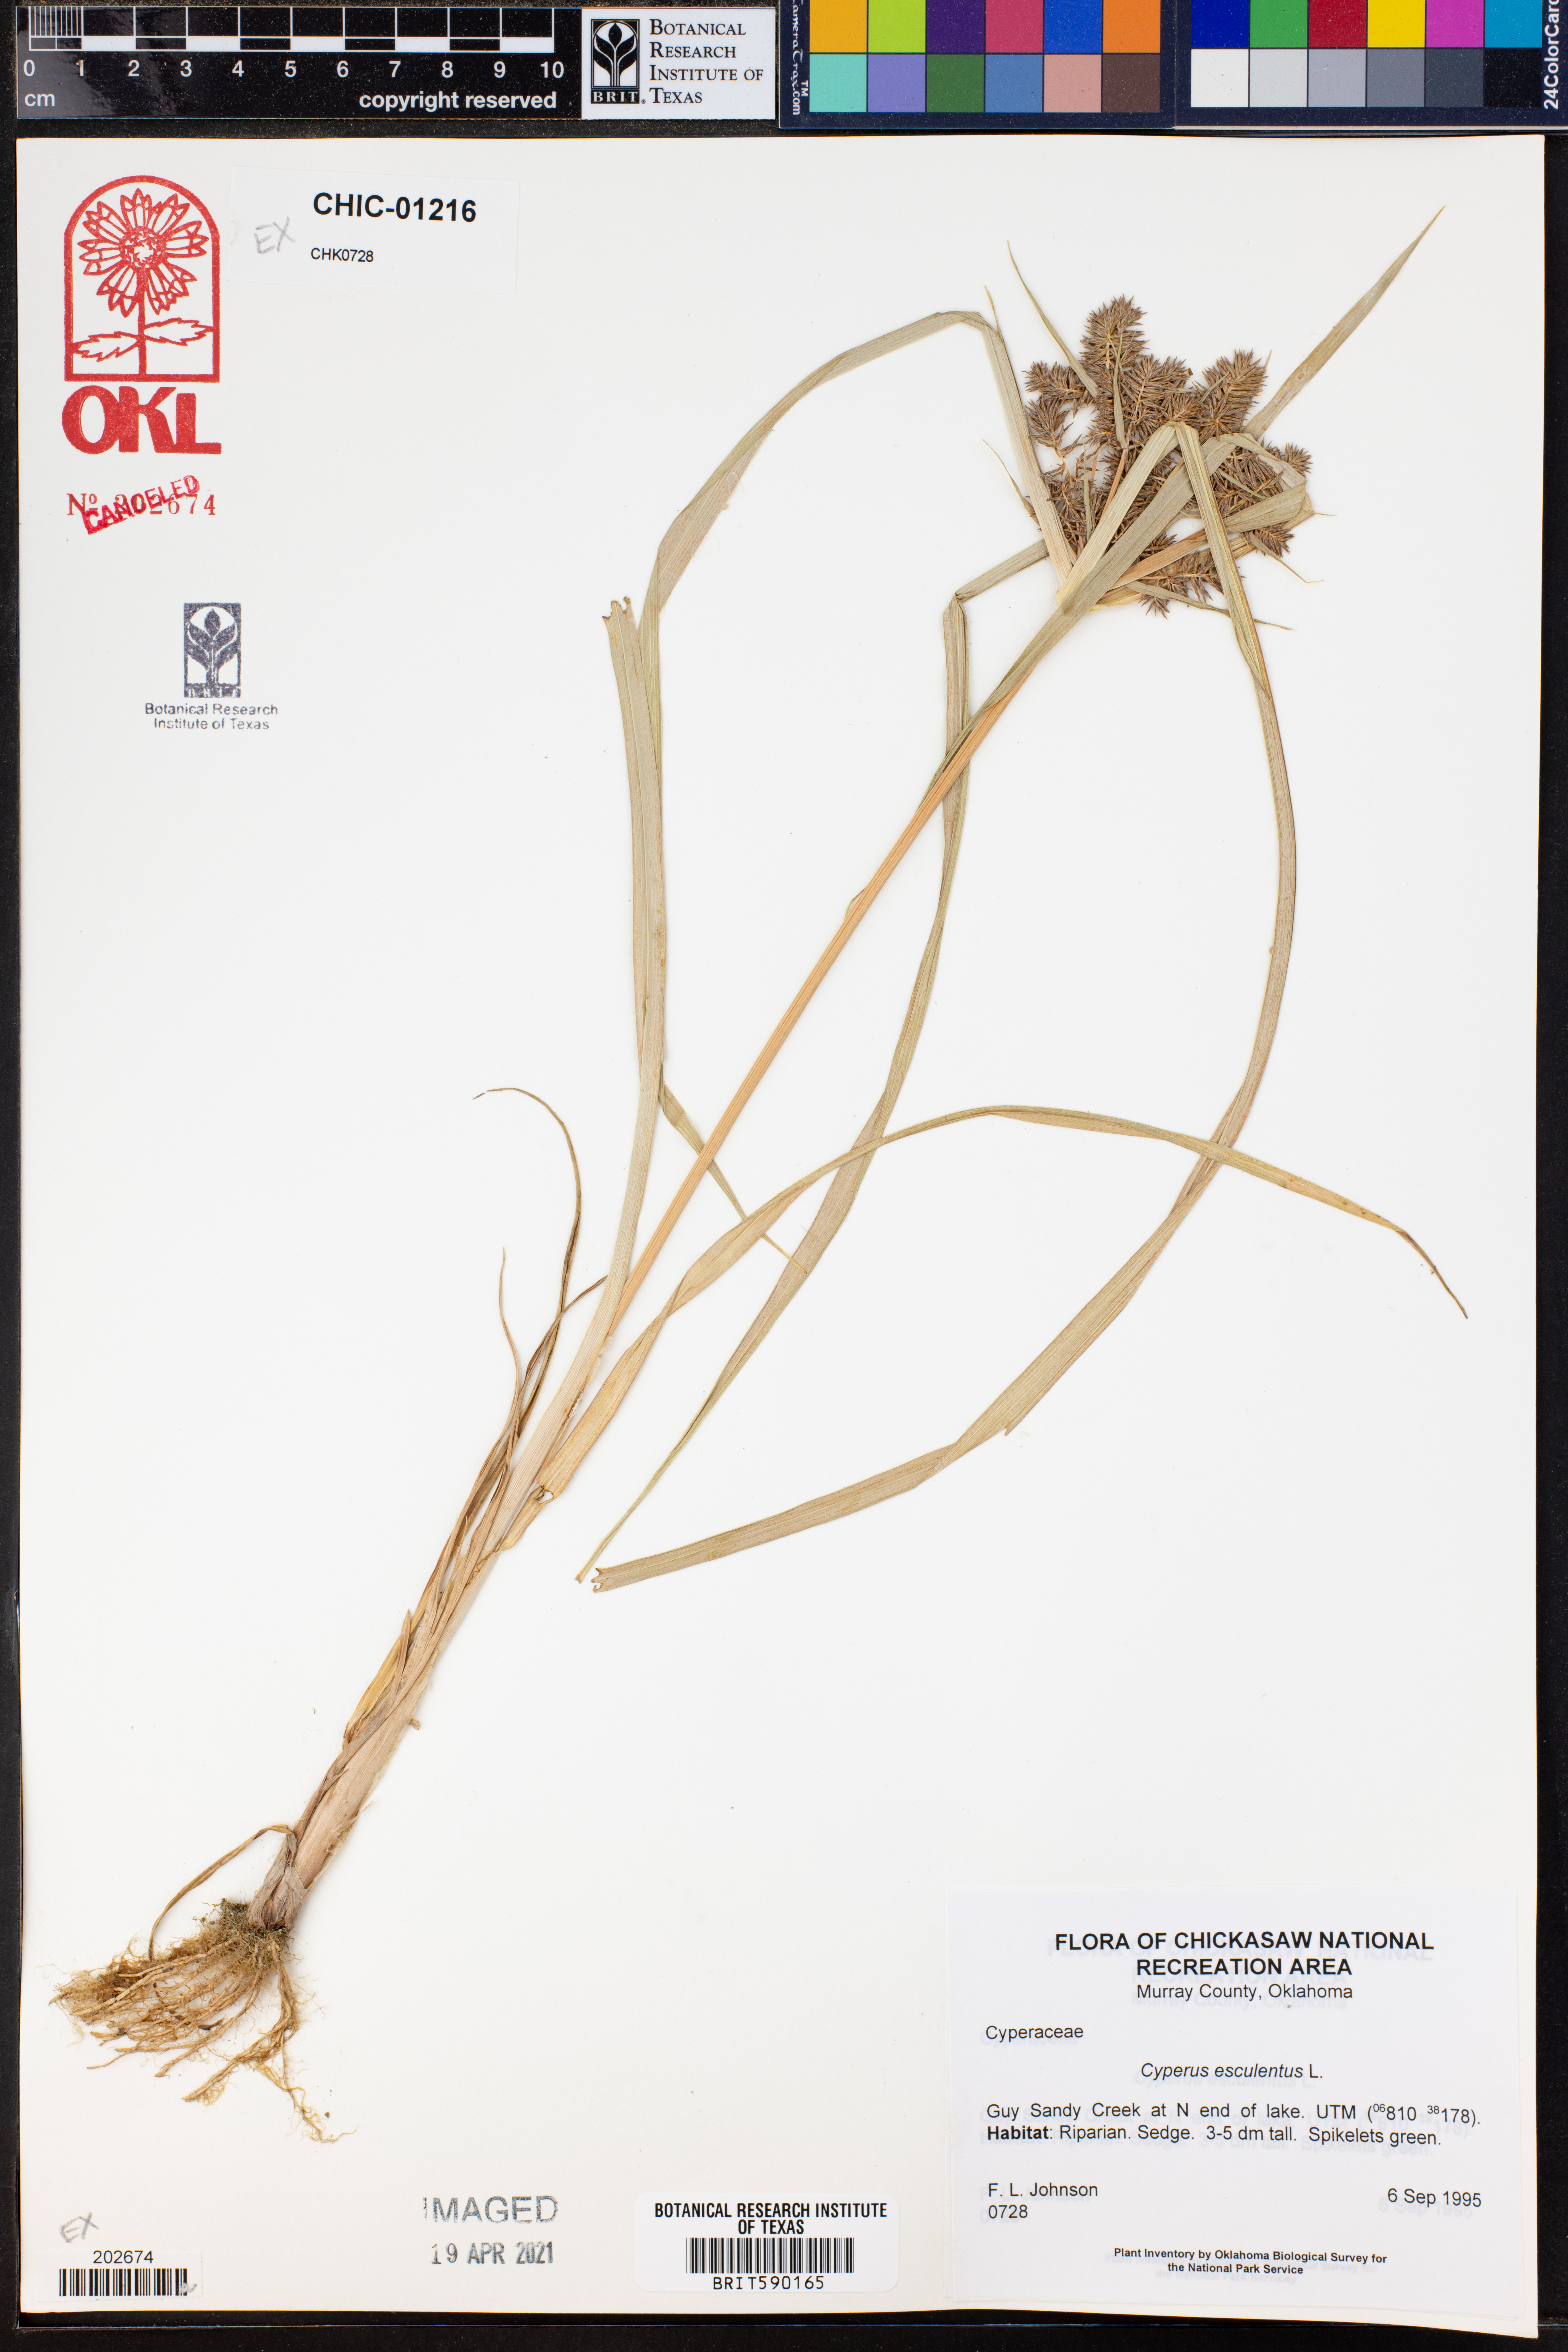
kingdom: Plantae
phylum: Tracheophyta
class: Liliopsida
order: Poales
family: Cyperaceae
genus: Cyperus
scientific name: Cyperus esculentus
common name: Yellow nutsedge
